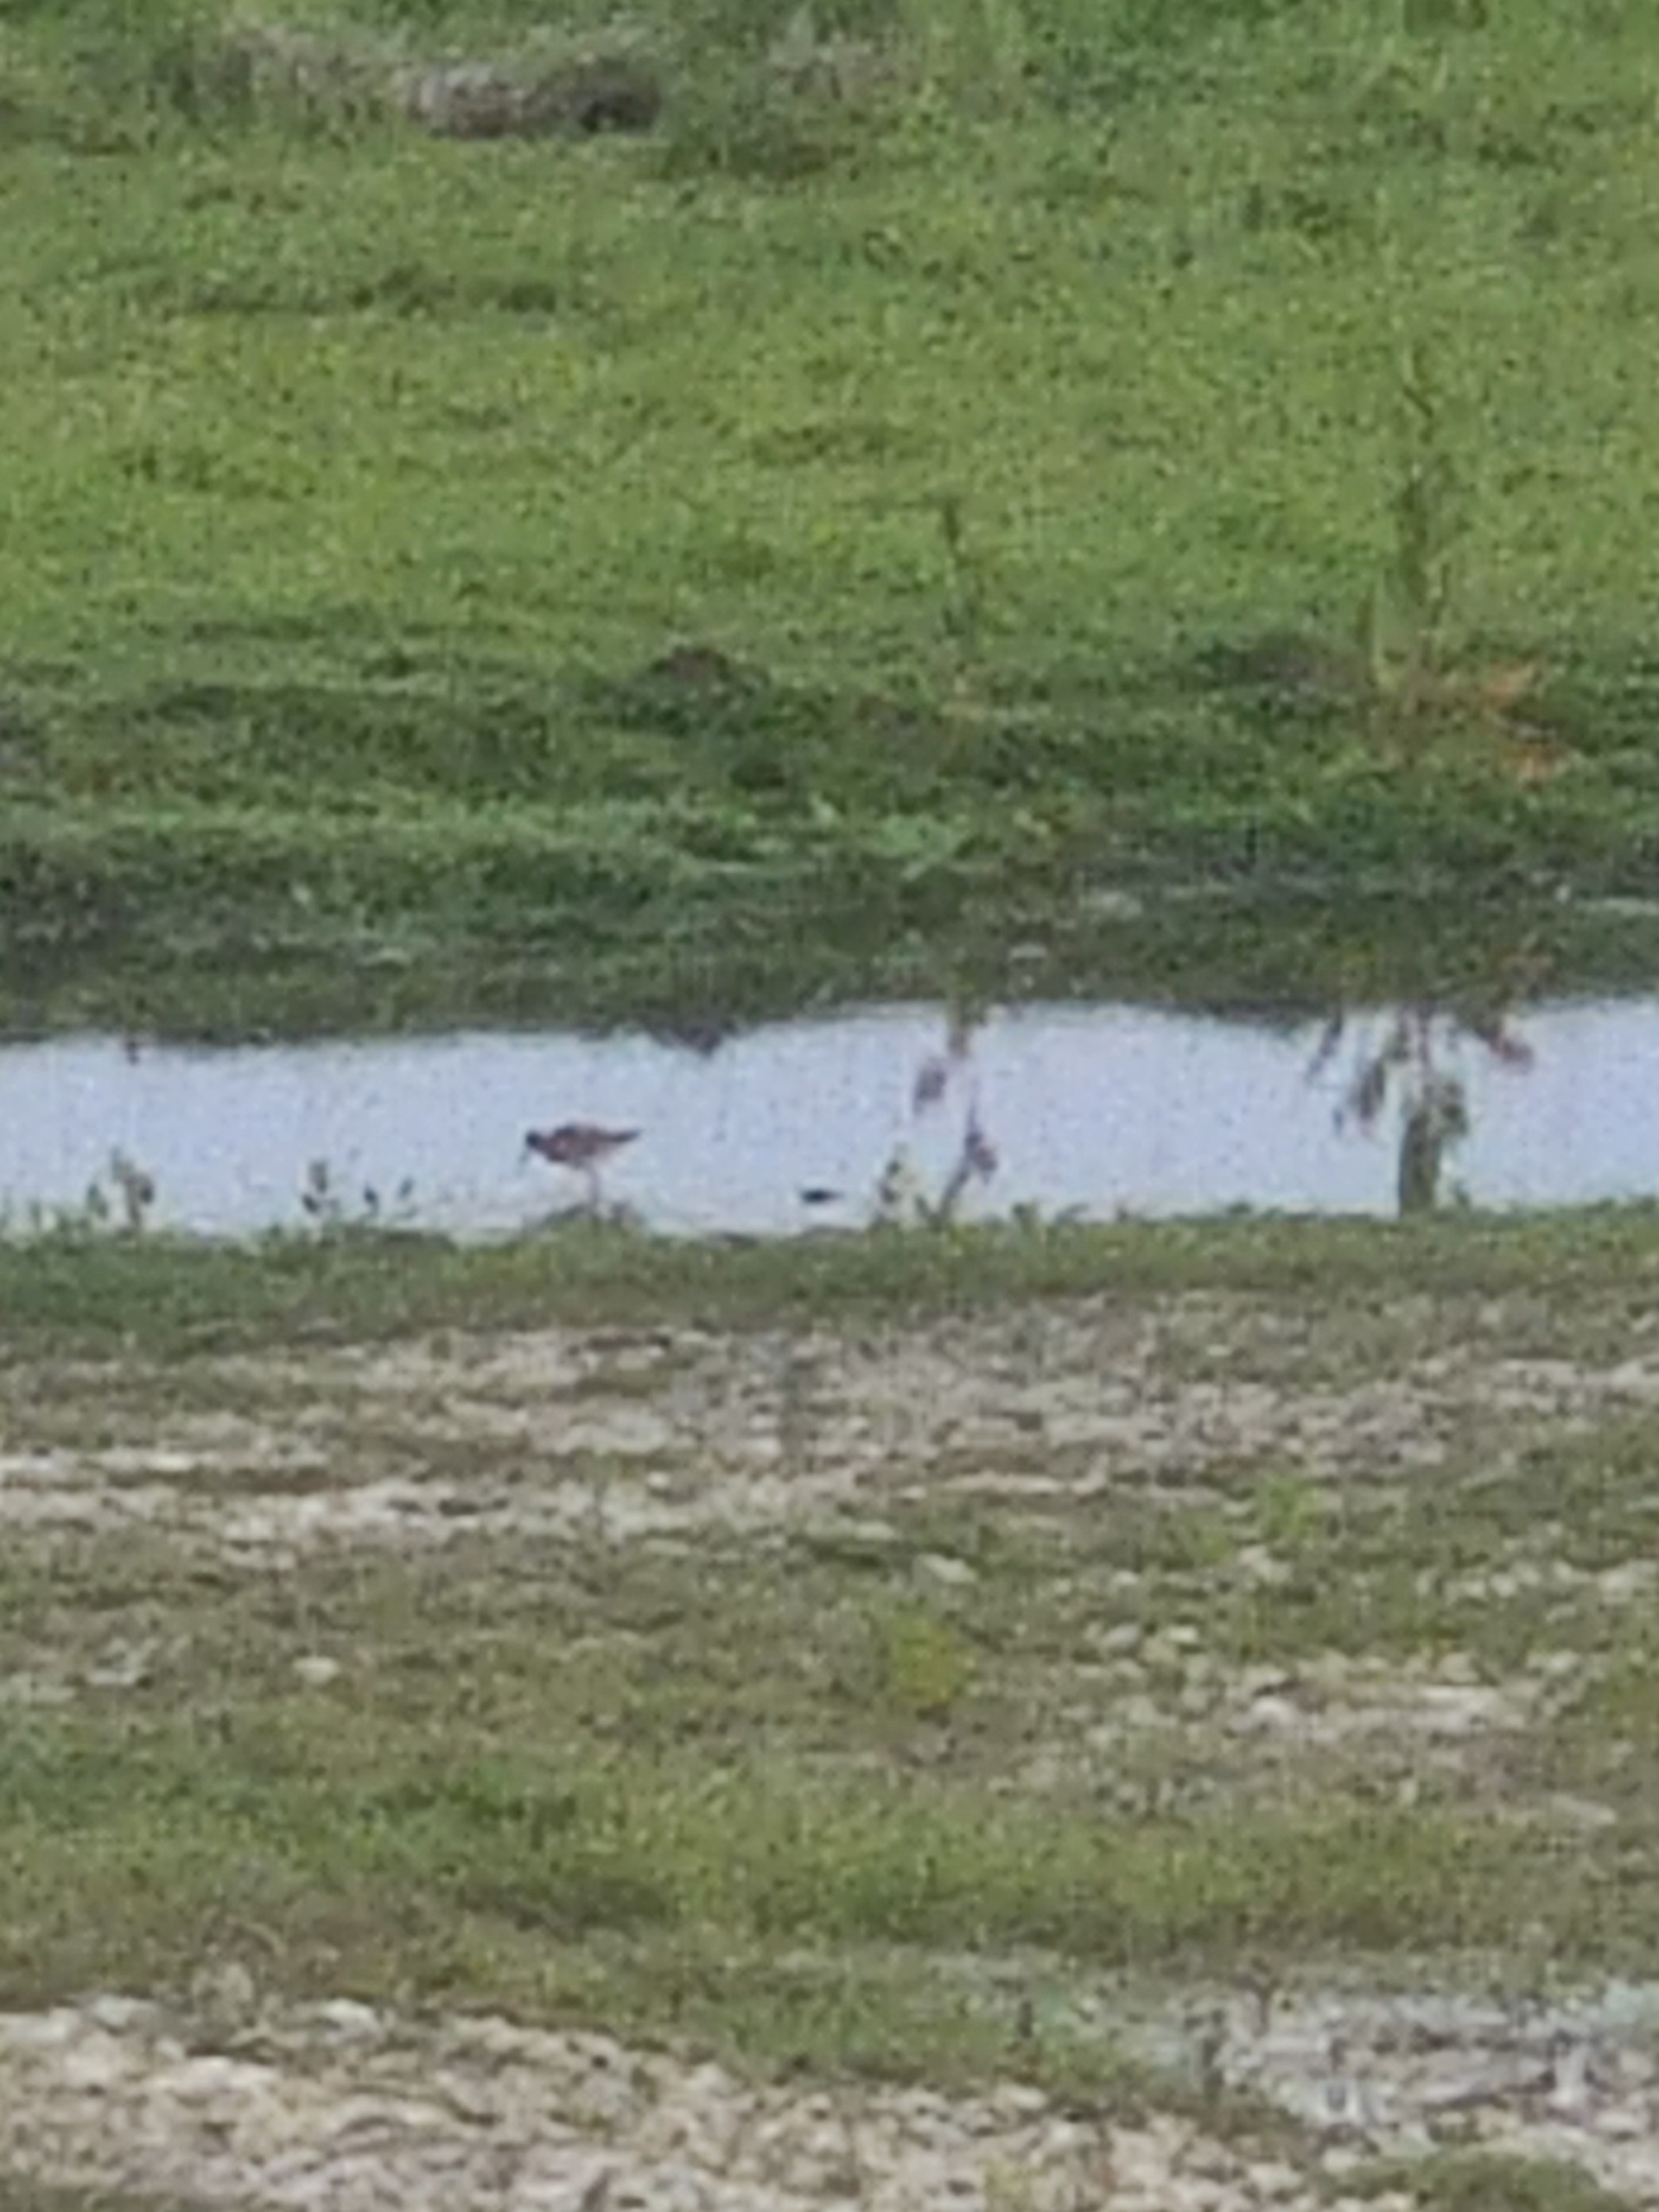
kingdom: Animalia
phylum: Chordata
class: Aves
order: Charadriiformes
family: Scolopacidae
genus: Tringa
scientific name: Tringa totanus
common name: Rødben
